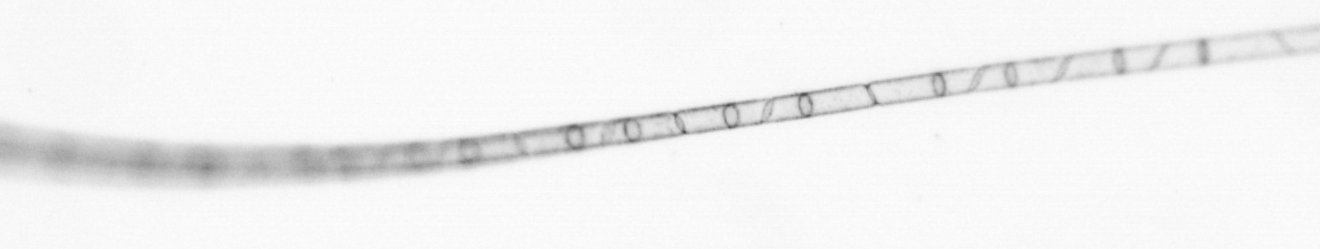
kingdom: Chromista
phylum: Ochrophyta
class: Bacillariophyceae
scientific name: Bacillariophyceae
